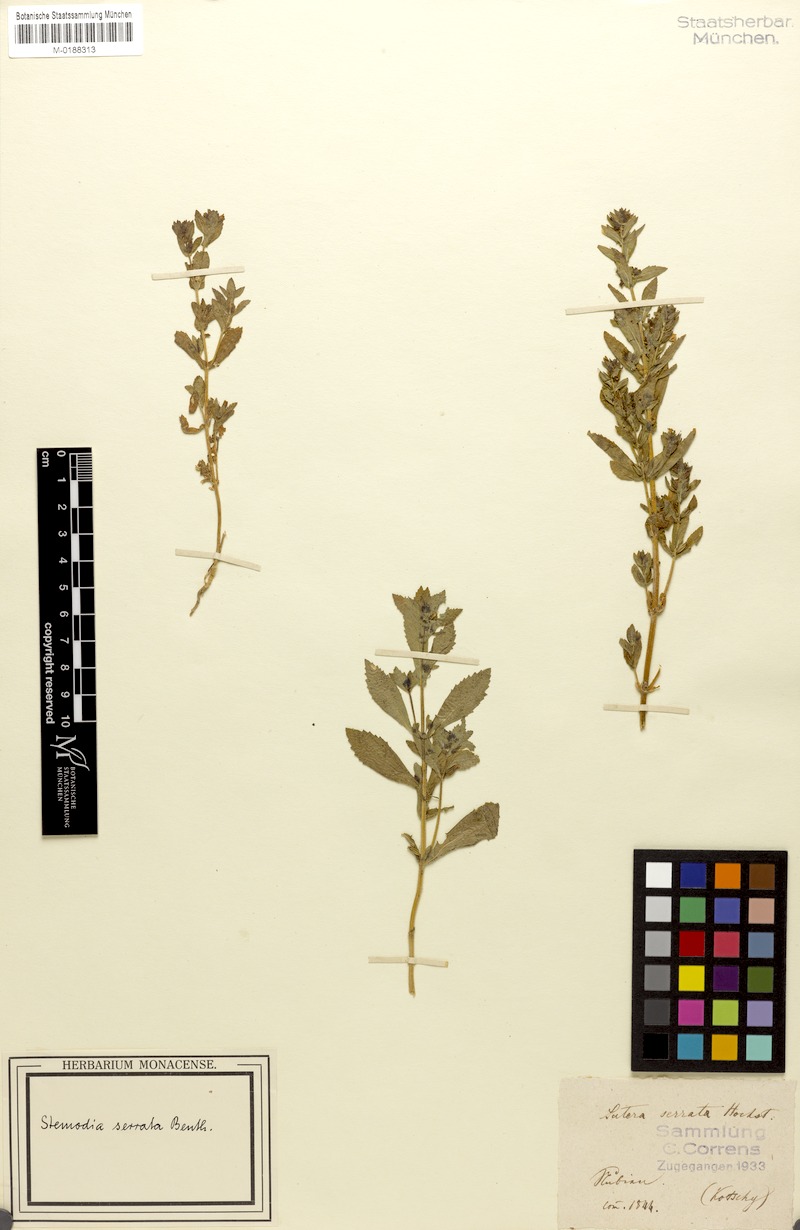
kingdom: Plantae
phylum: Tracheophyta
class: Magnoliopsida
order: Lamiales
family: Plantaginaceae
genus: Stemodia
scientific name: Stemodia serrata
